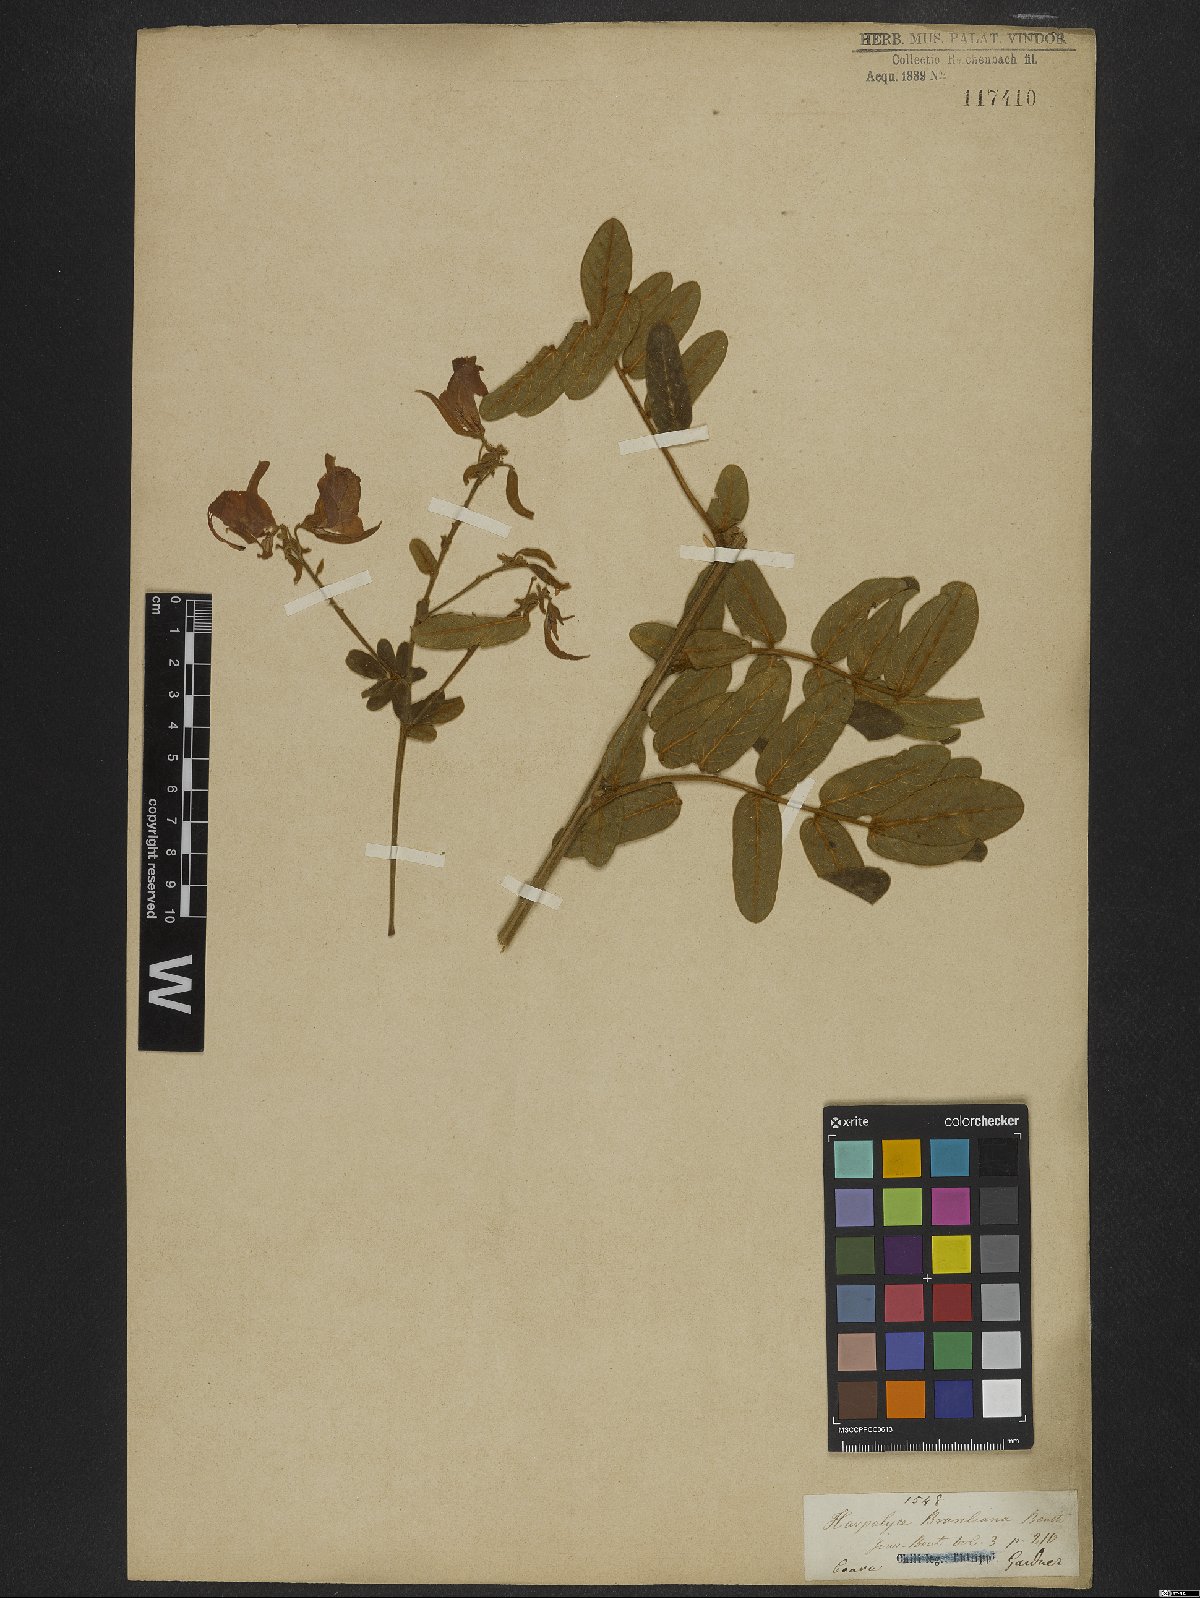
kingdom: Plantae
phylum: Tracheophyta
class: Magnoliopsida
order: Fabales
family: Fabaceae
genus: Harpalyce
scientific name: Harpalyce brasiliana
